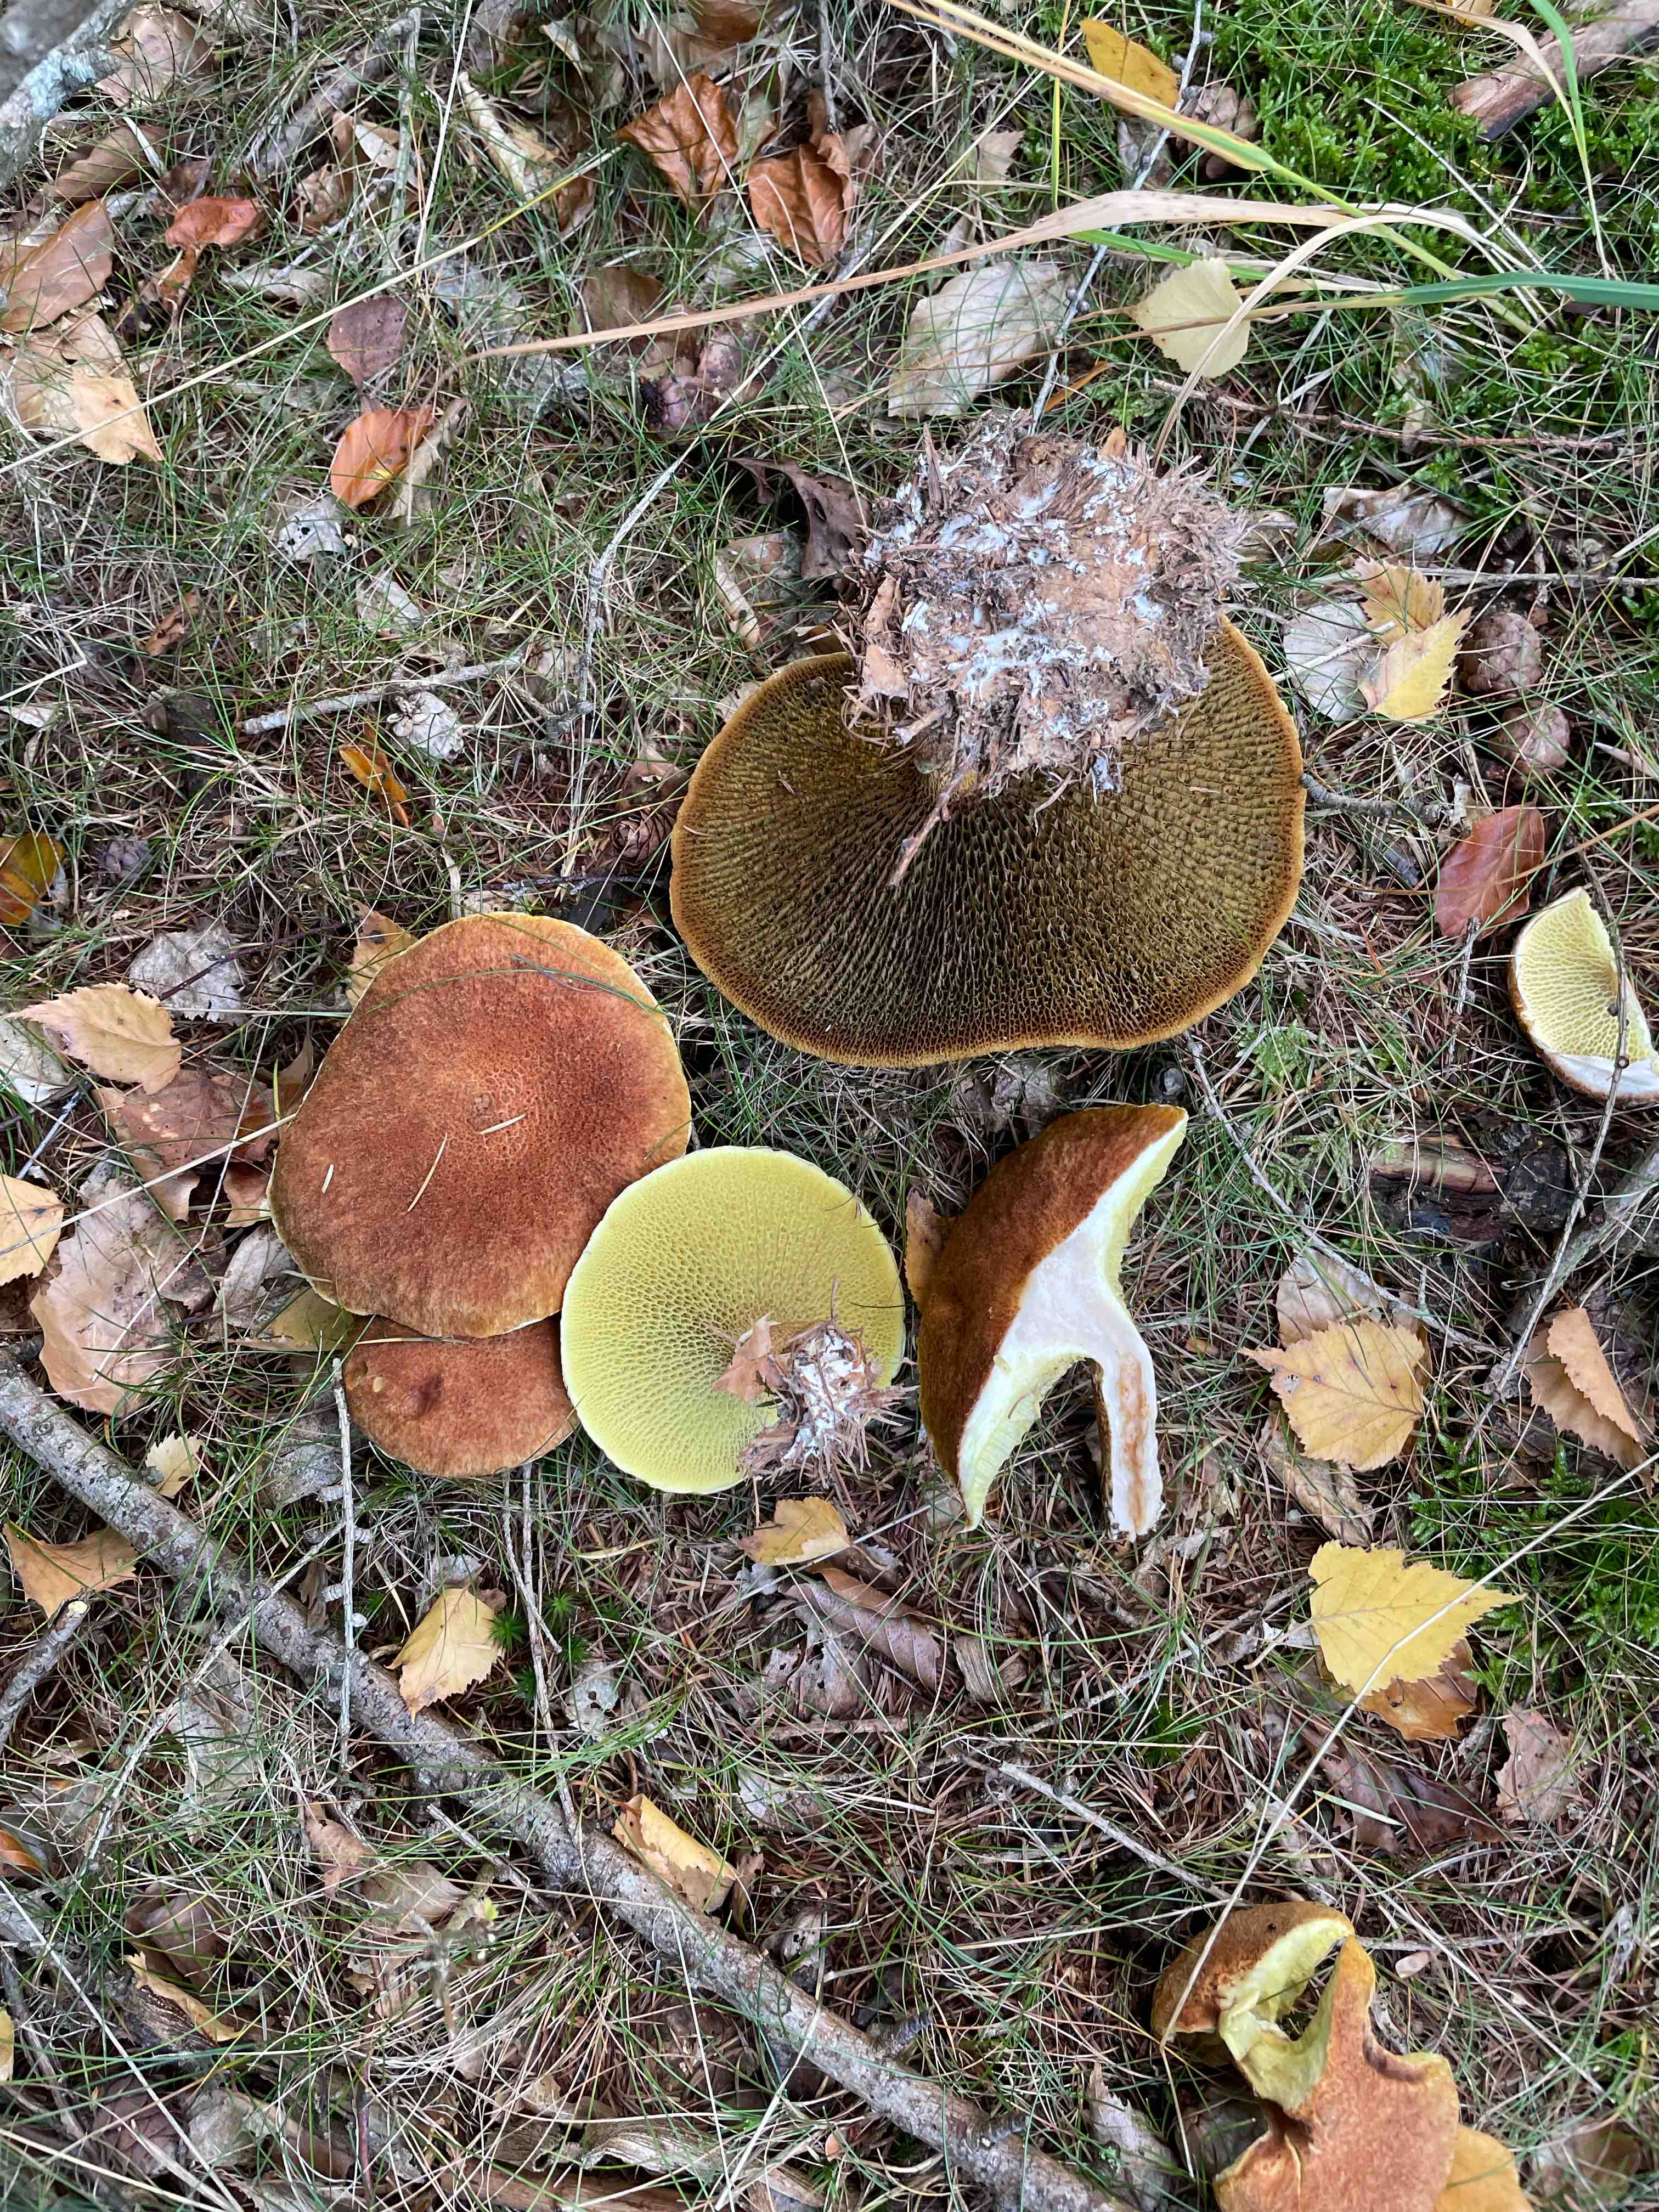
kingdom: Fungi
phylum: Basidiomycota
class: Agaricomycetes
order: Boletales
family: Suillaceae
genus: Suillus
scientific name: Suillus cavipes
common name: hulstokket slimrørhat
